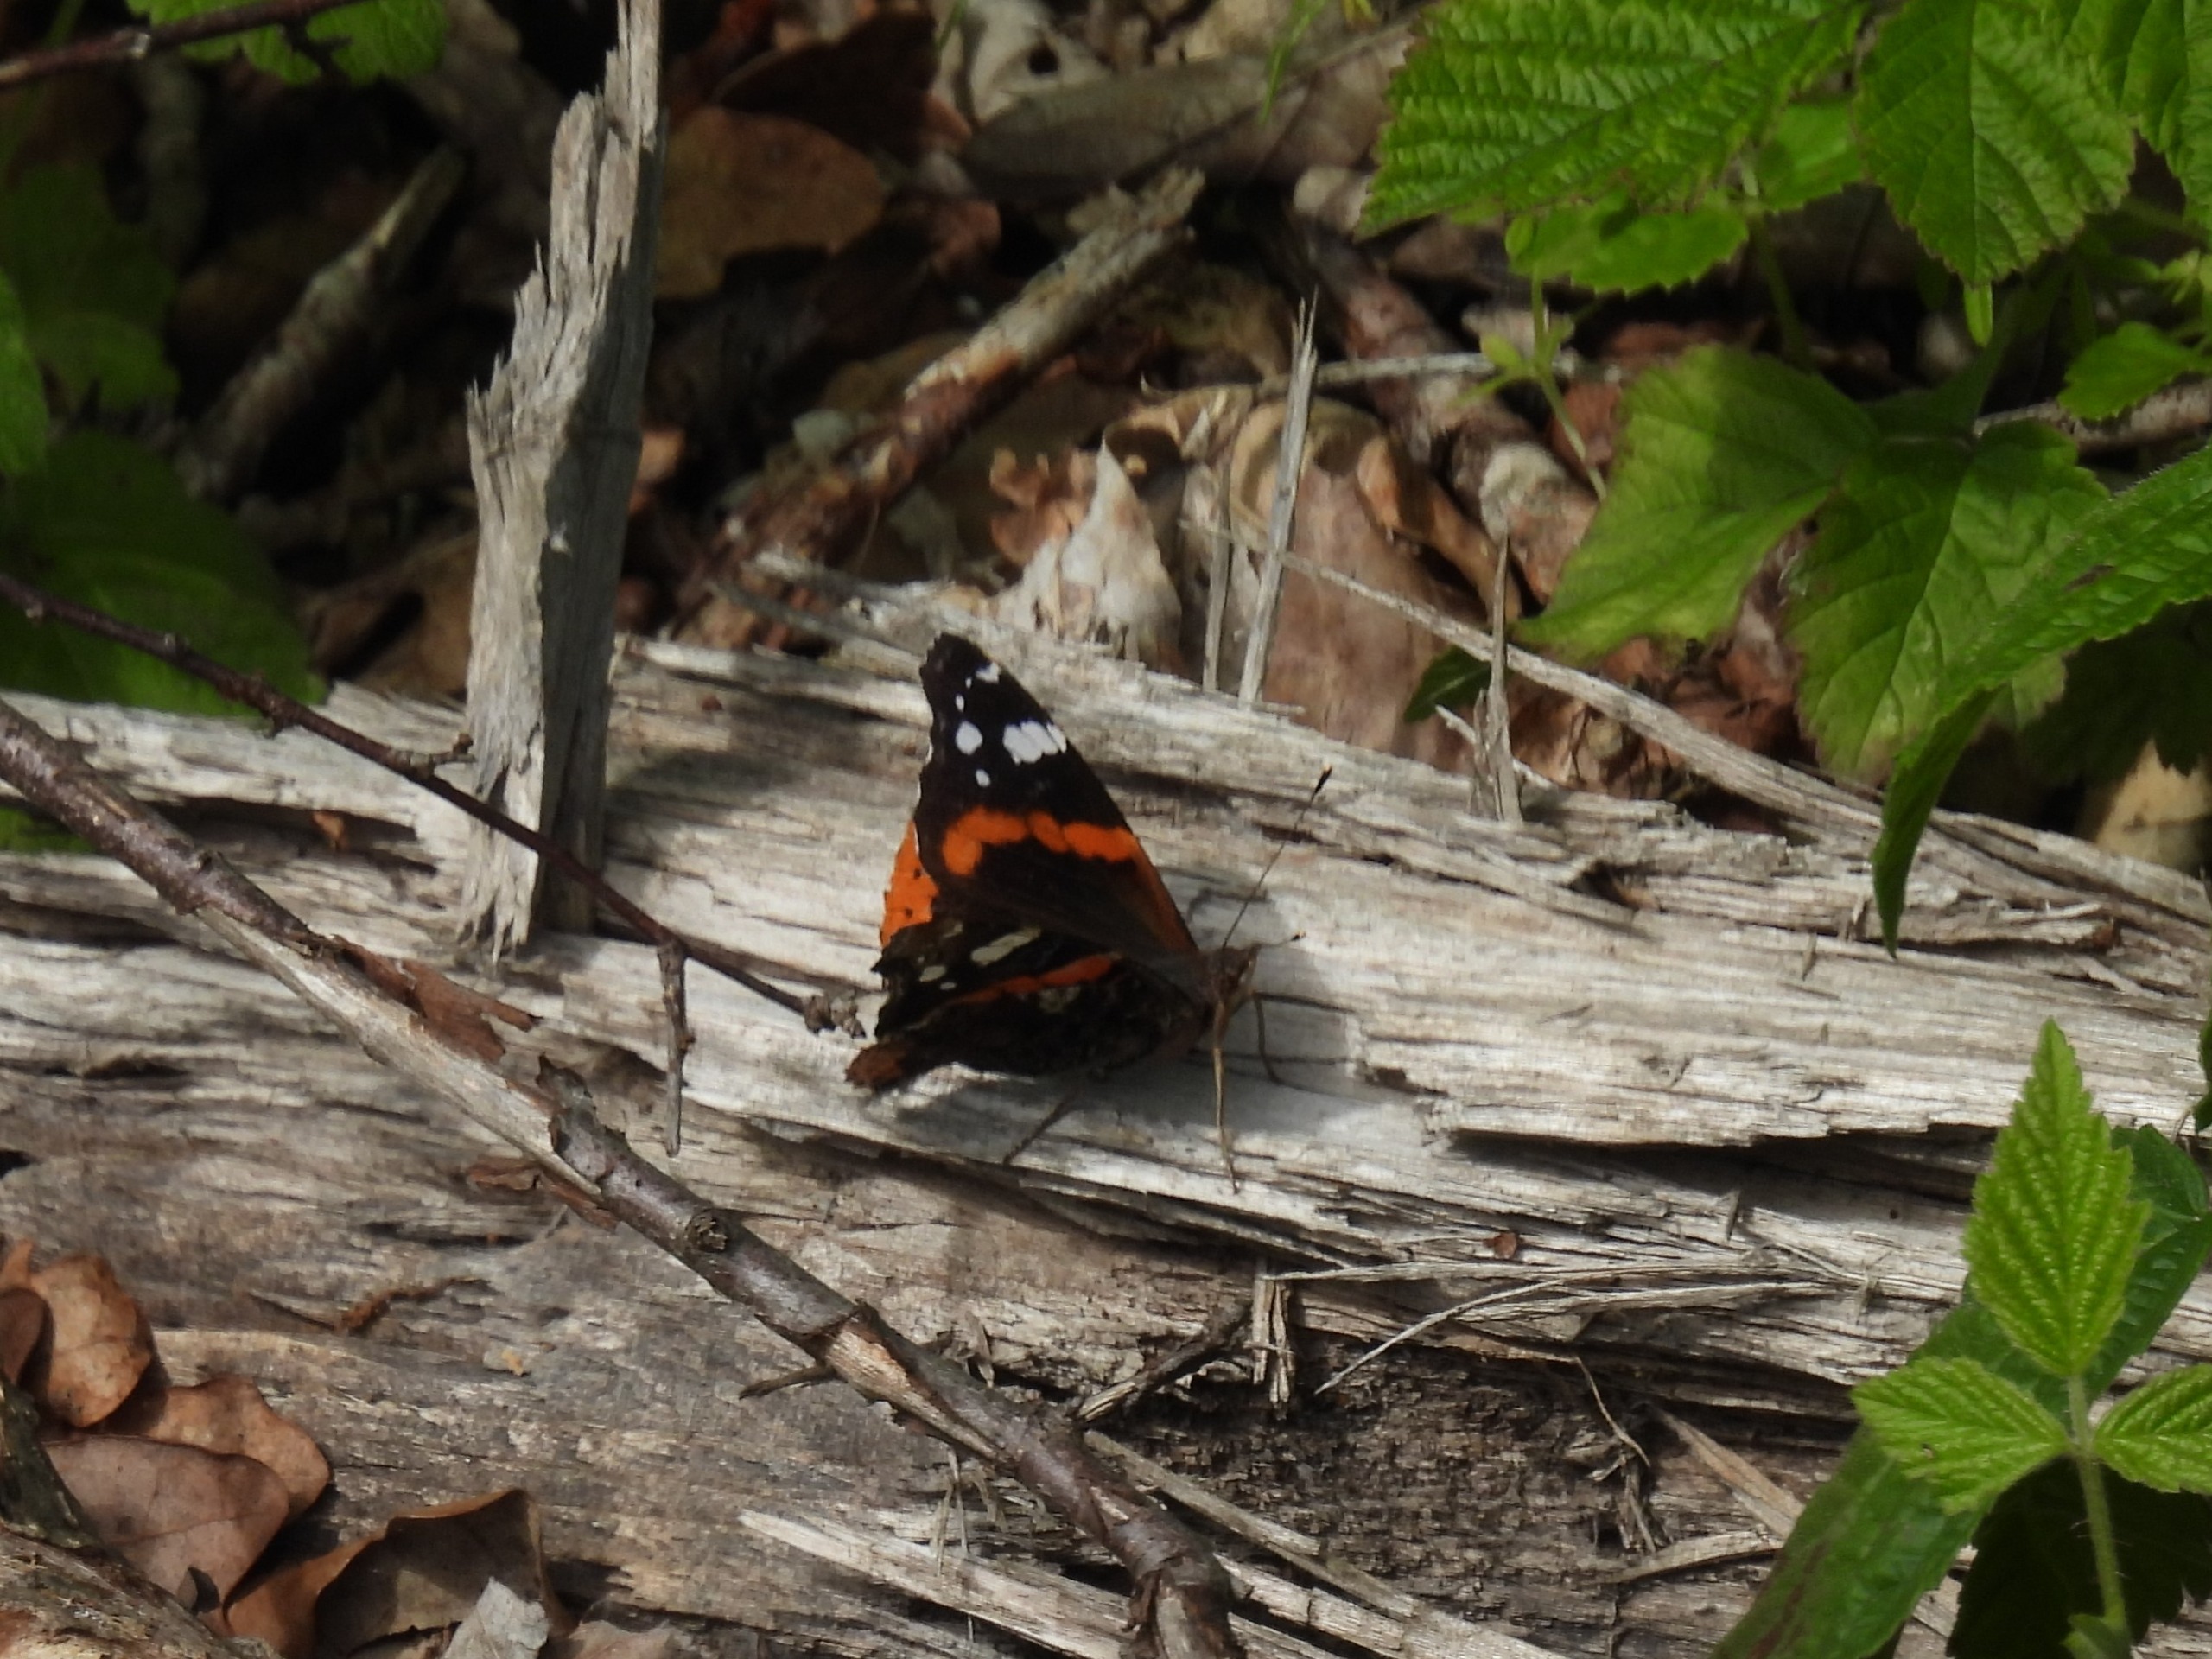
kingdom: Animalia
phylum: Arthropoda
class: Insecta
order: Lepidoptera
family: Nymphalidae
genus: Vanessa
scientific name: Vanessa atalanta
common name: Admiral
